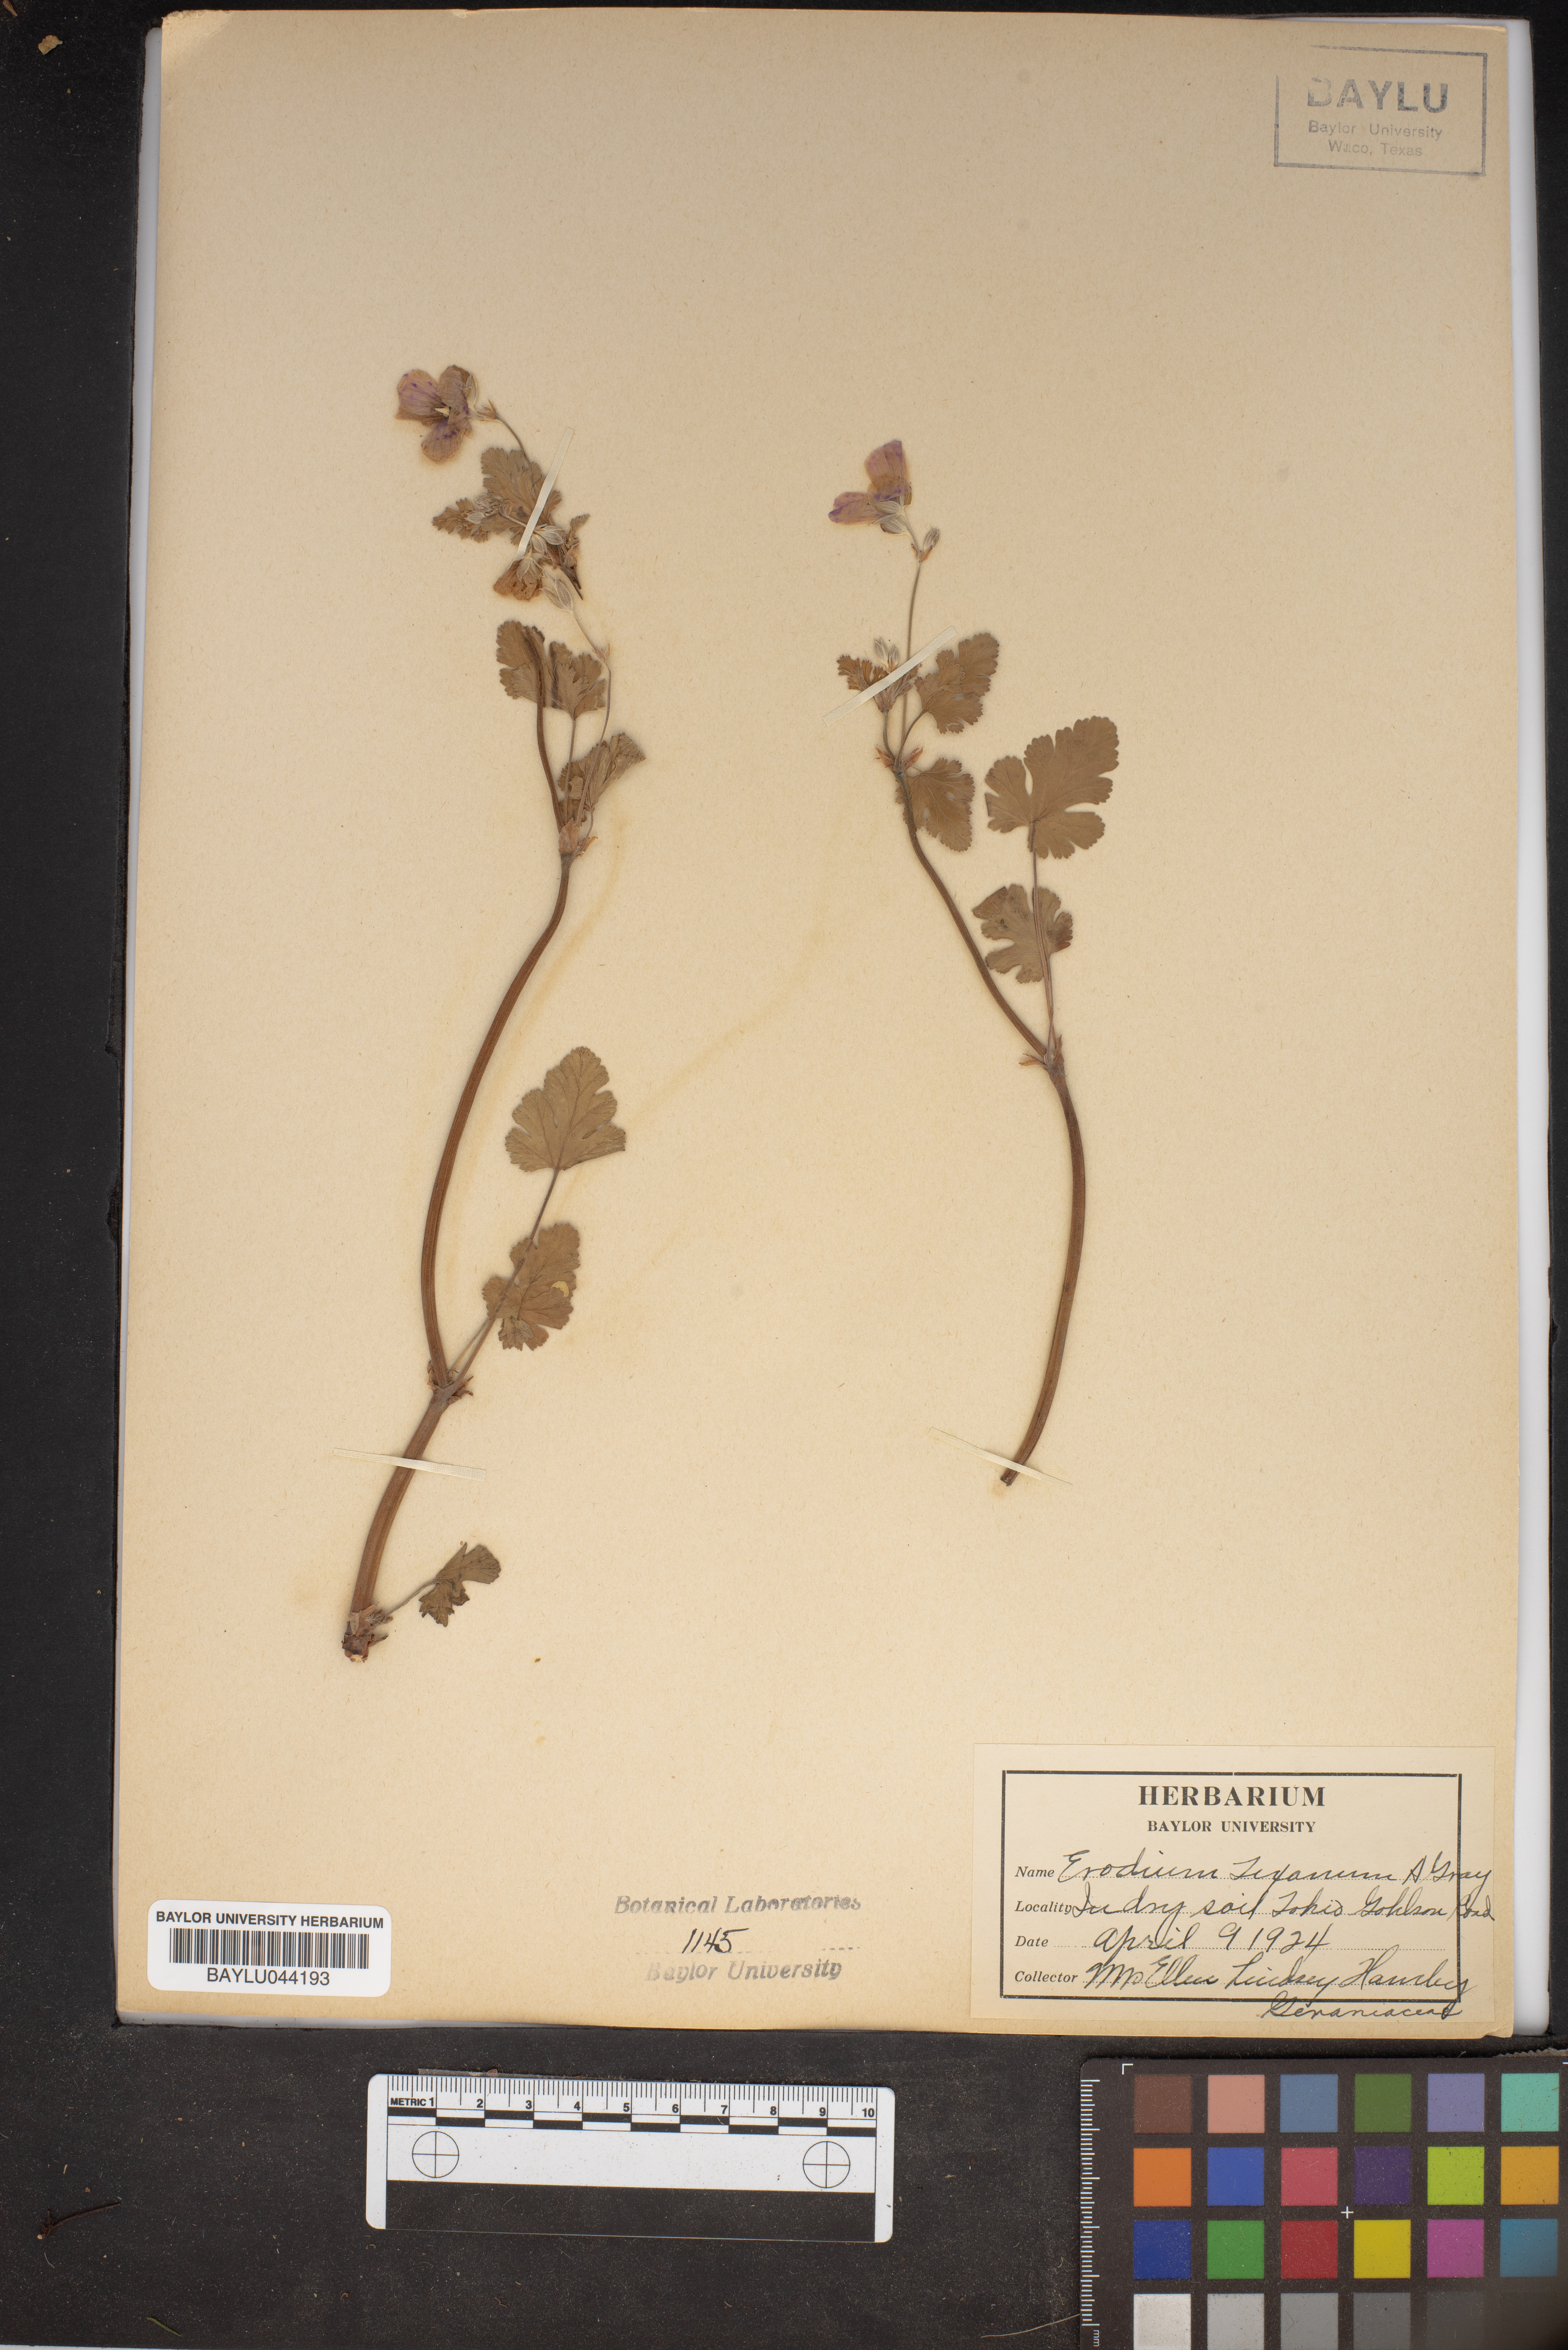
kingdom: Plantae
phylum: Tracheophyta
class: Magnoliopsida
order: Geraniales
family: Geraniaceae
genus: Erodium
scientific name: Erodium texanum
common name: Texas stork's-bill
